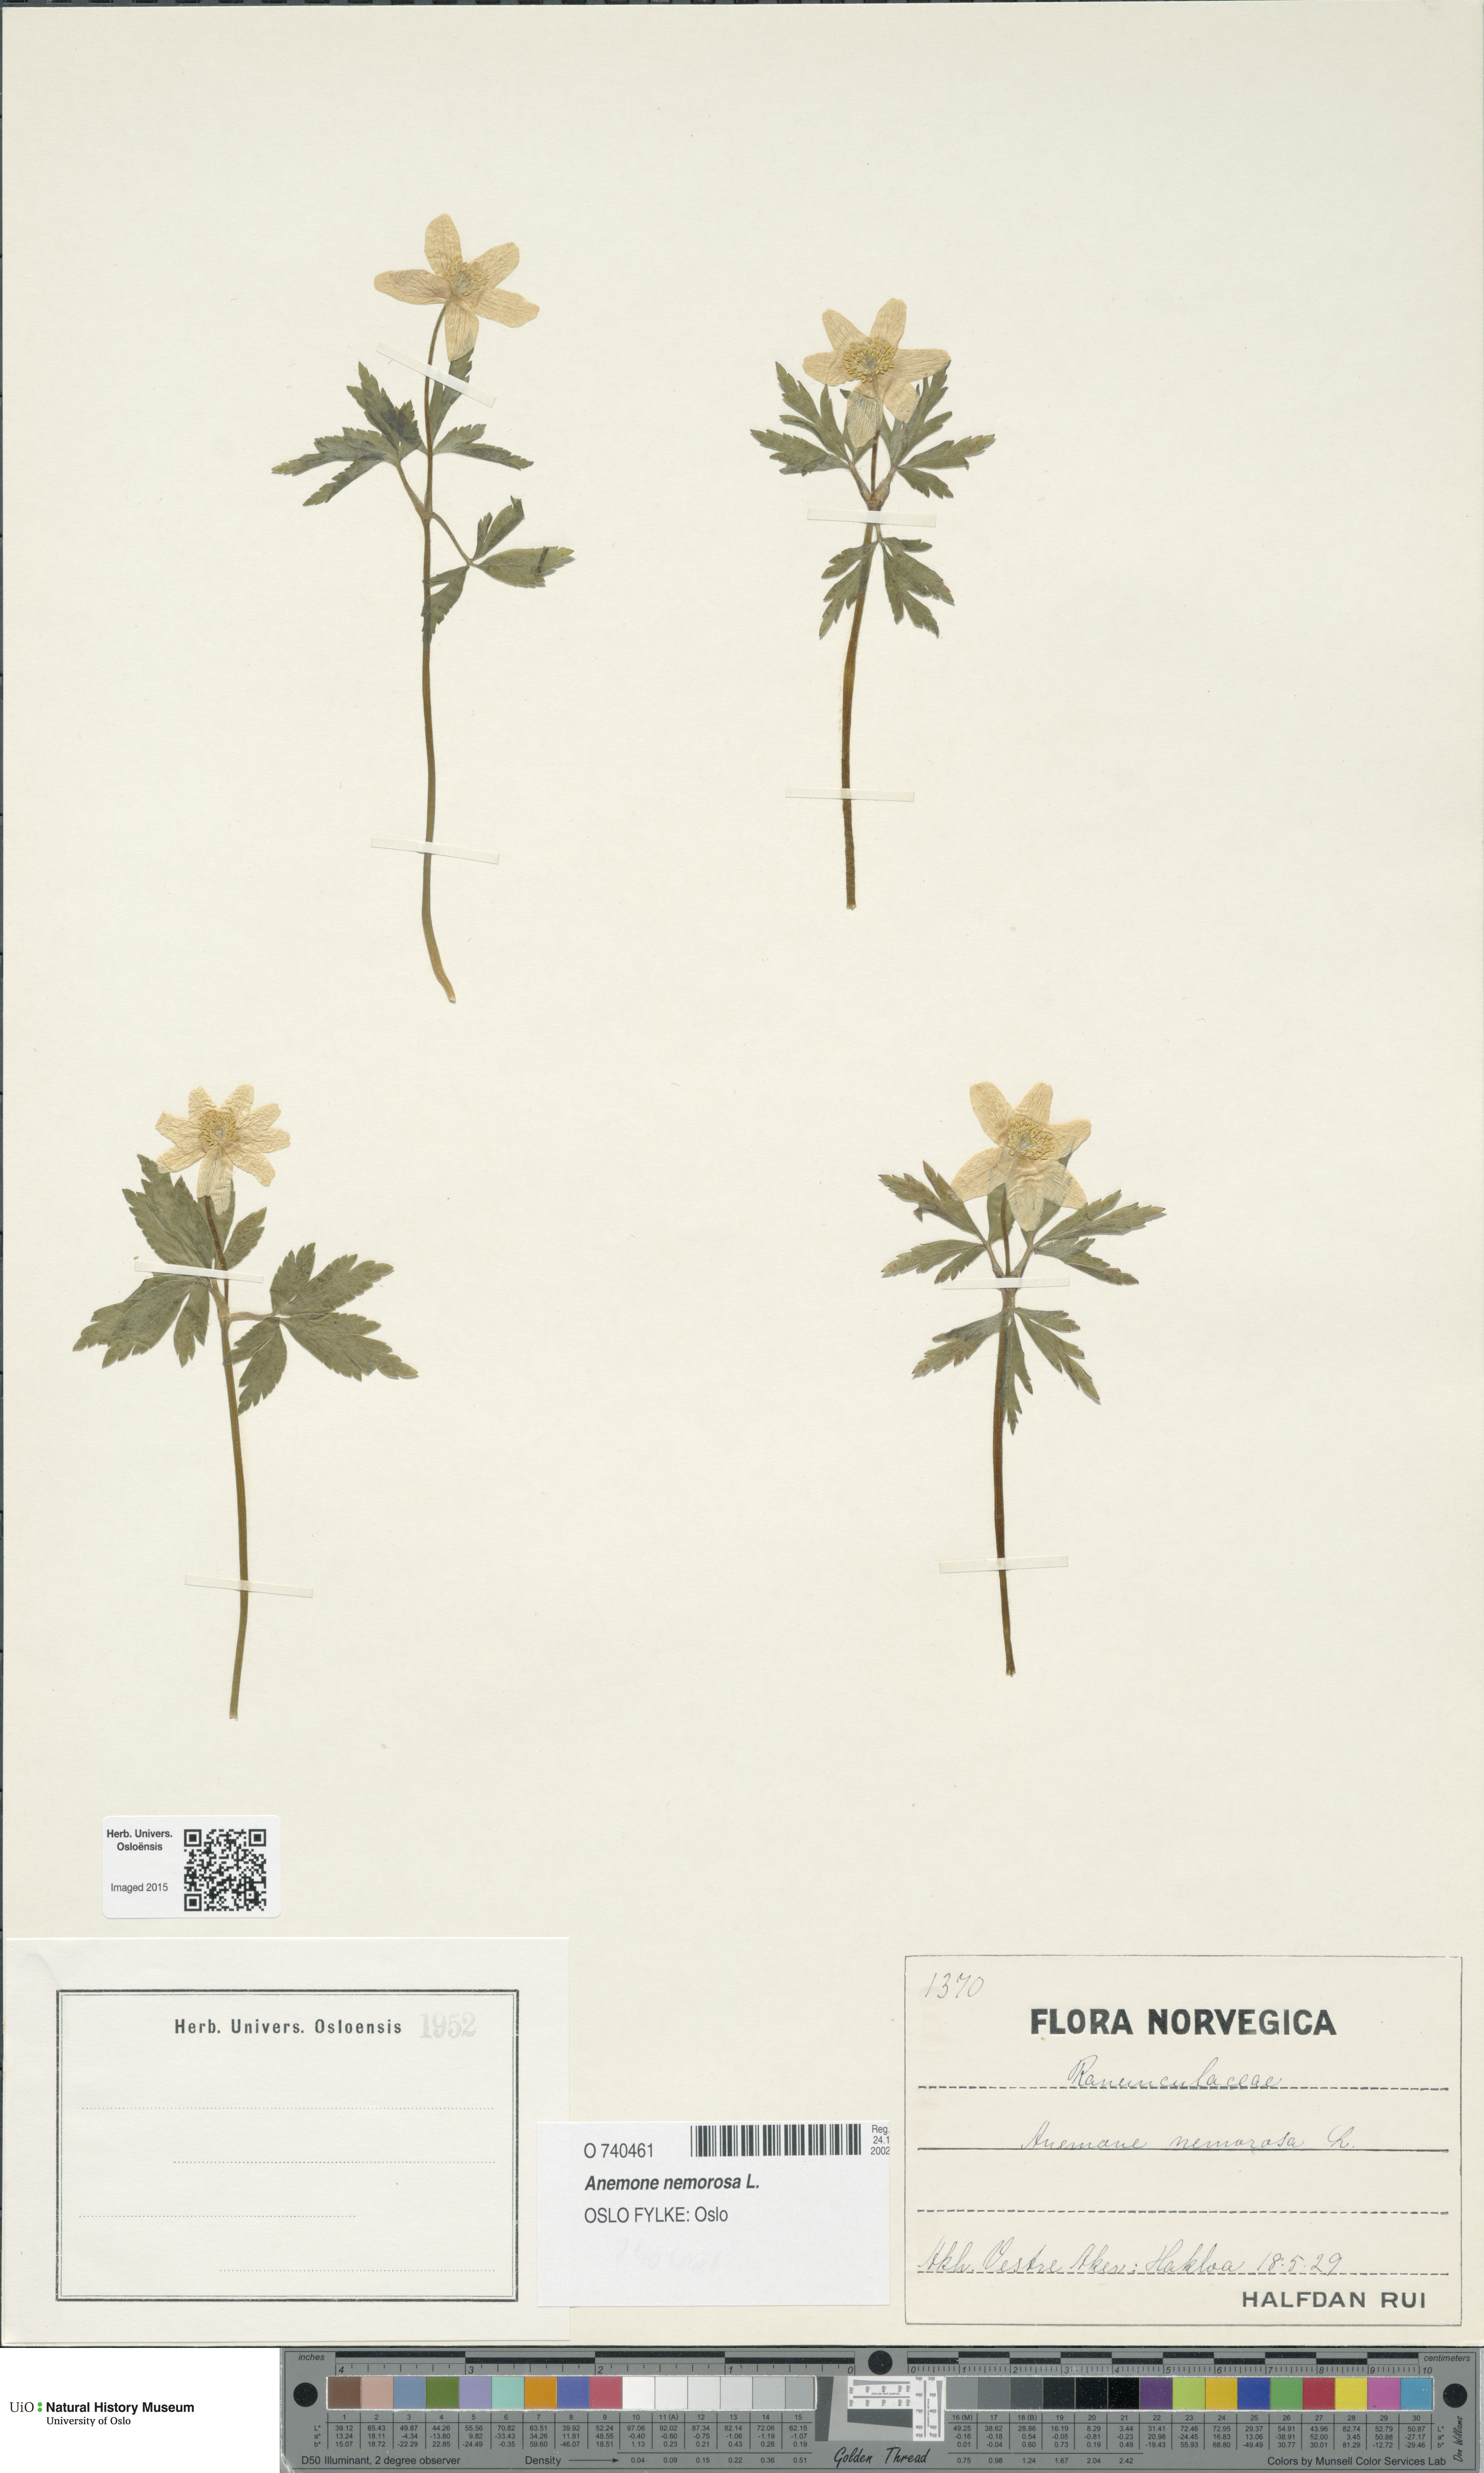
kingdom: Plantae
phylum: Tracheophyta
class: Magnoliopsida
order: Ranunculales
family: Ranunculaceae
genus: Anemone
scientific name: Anemone nemorosa
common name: Wood anemone
